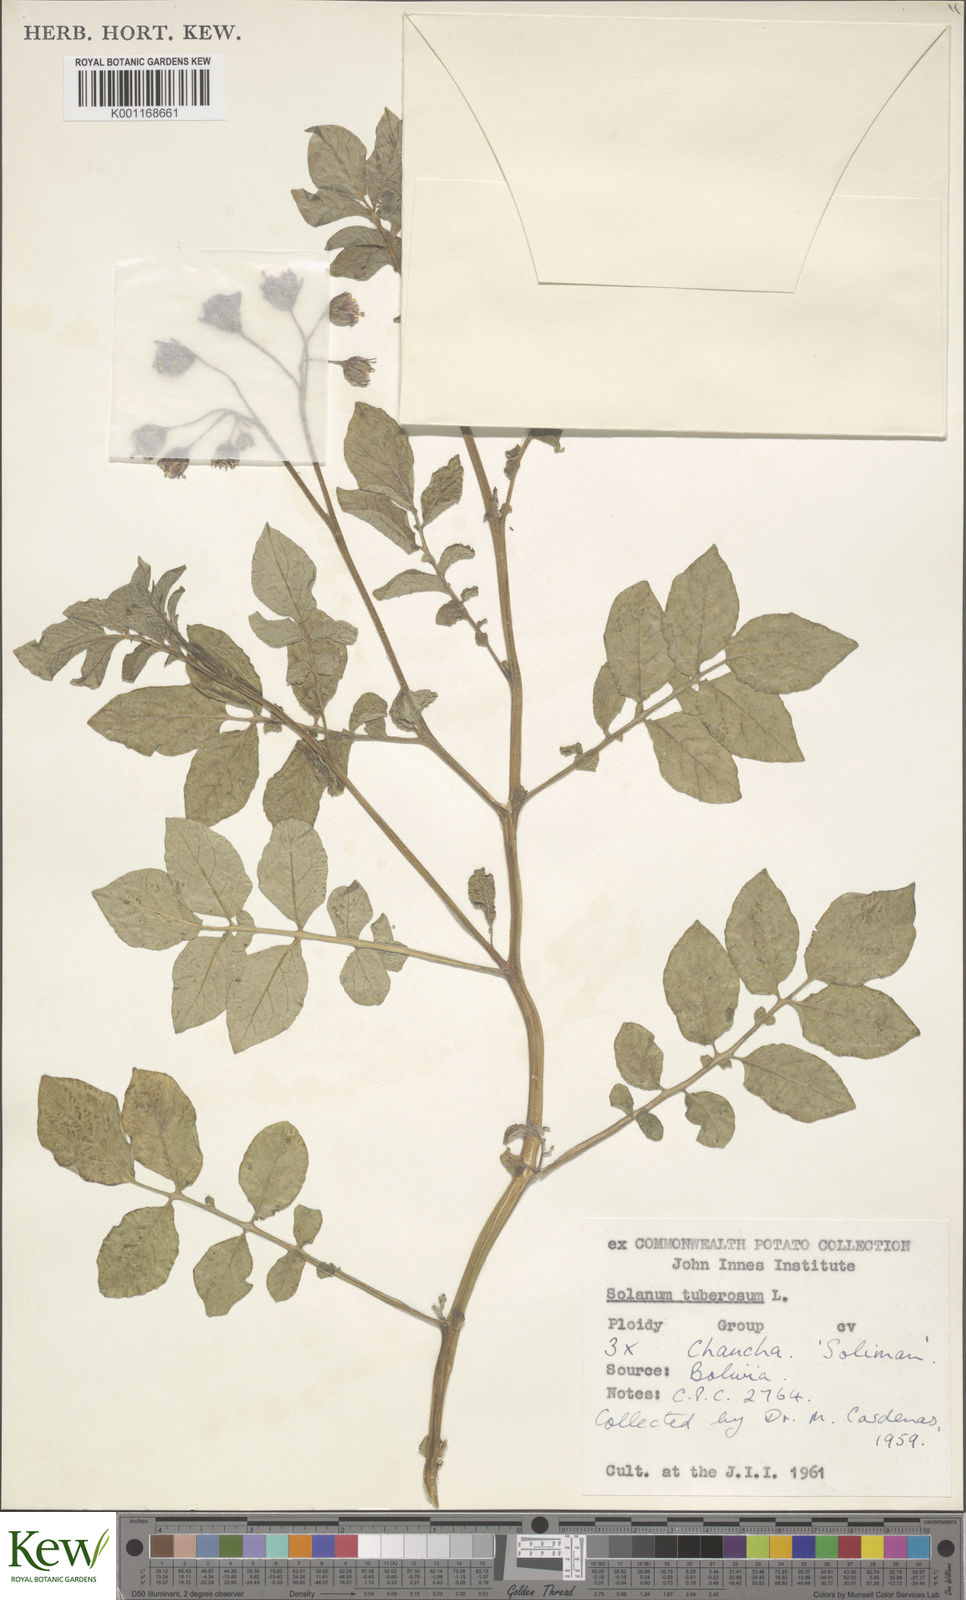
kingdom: Plantae
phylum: Tracheophyta
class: Magnoliopsida
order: Solanales
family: Solanaceae
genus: Solanum
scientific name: Solanum chaucha
